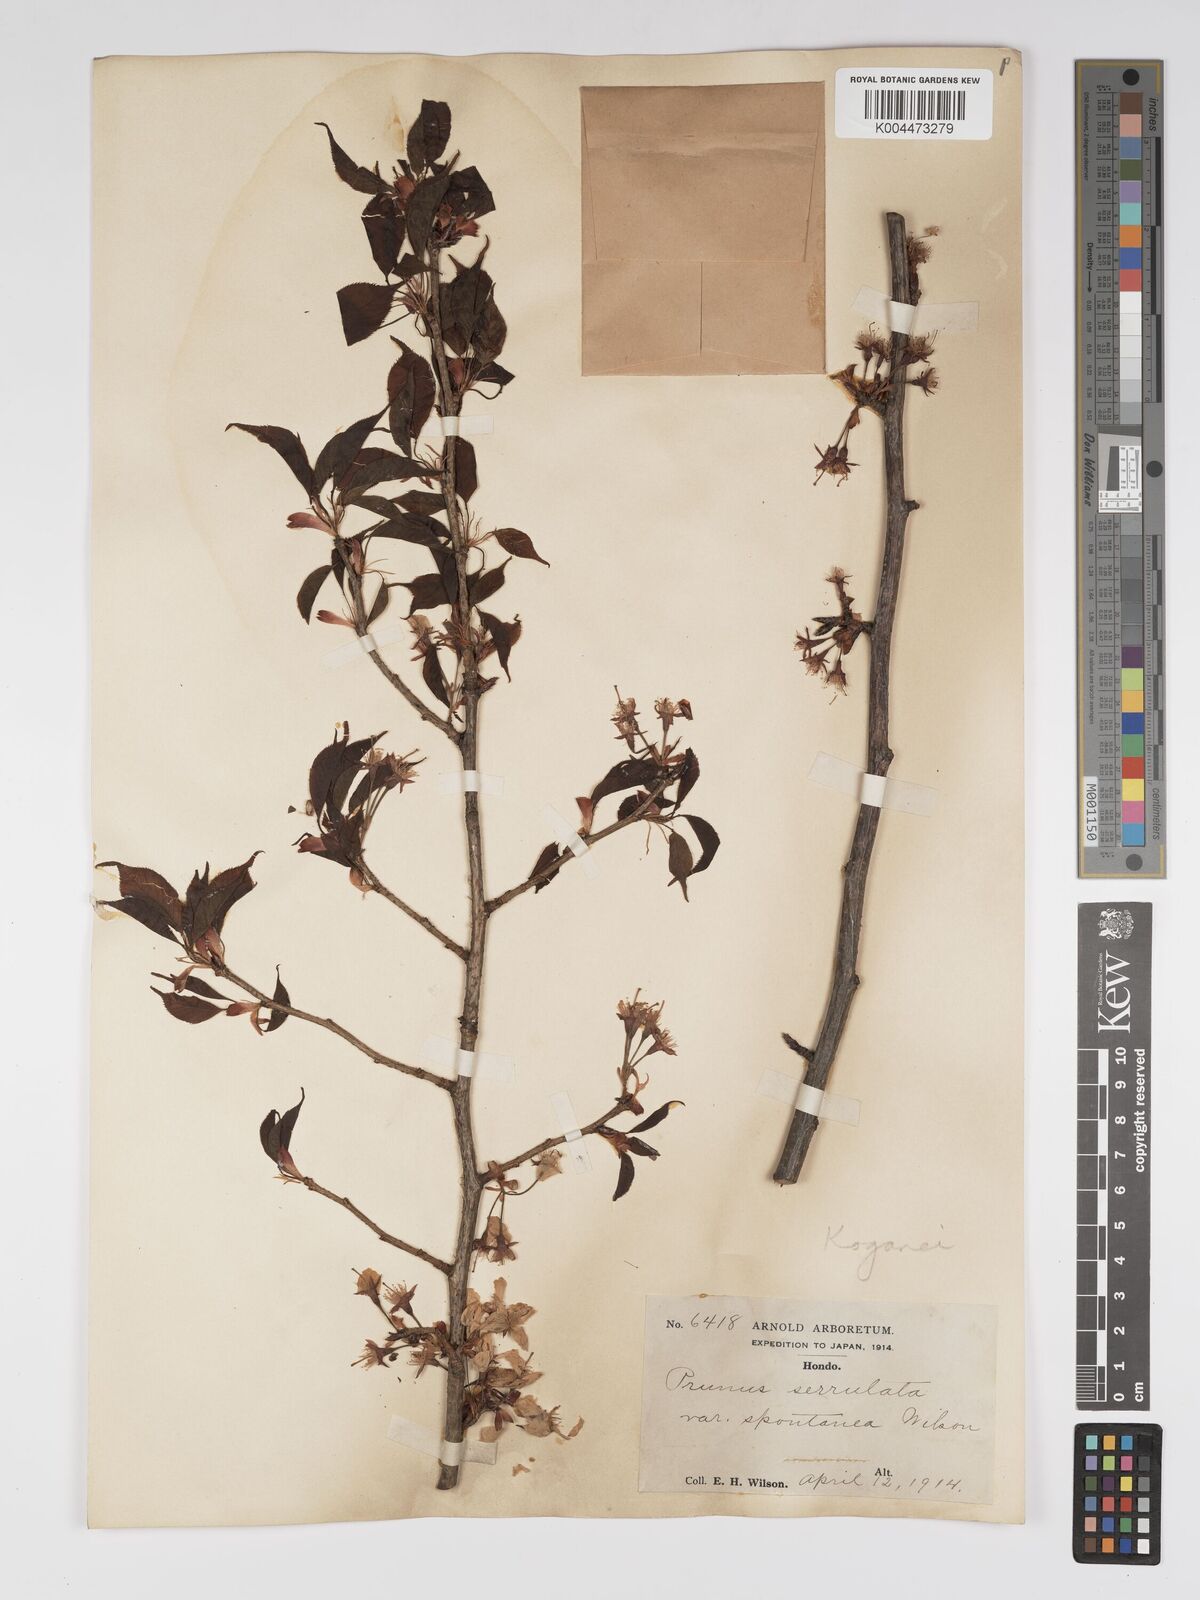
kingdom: Plantae
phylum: Tracheophyta
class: Magnoliopsida
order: Rosales
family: Rosaceae
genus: Prunus
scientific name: Prunus serrulata
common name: Japanese cherry
